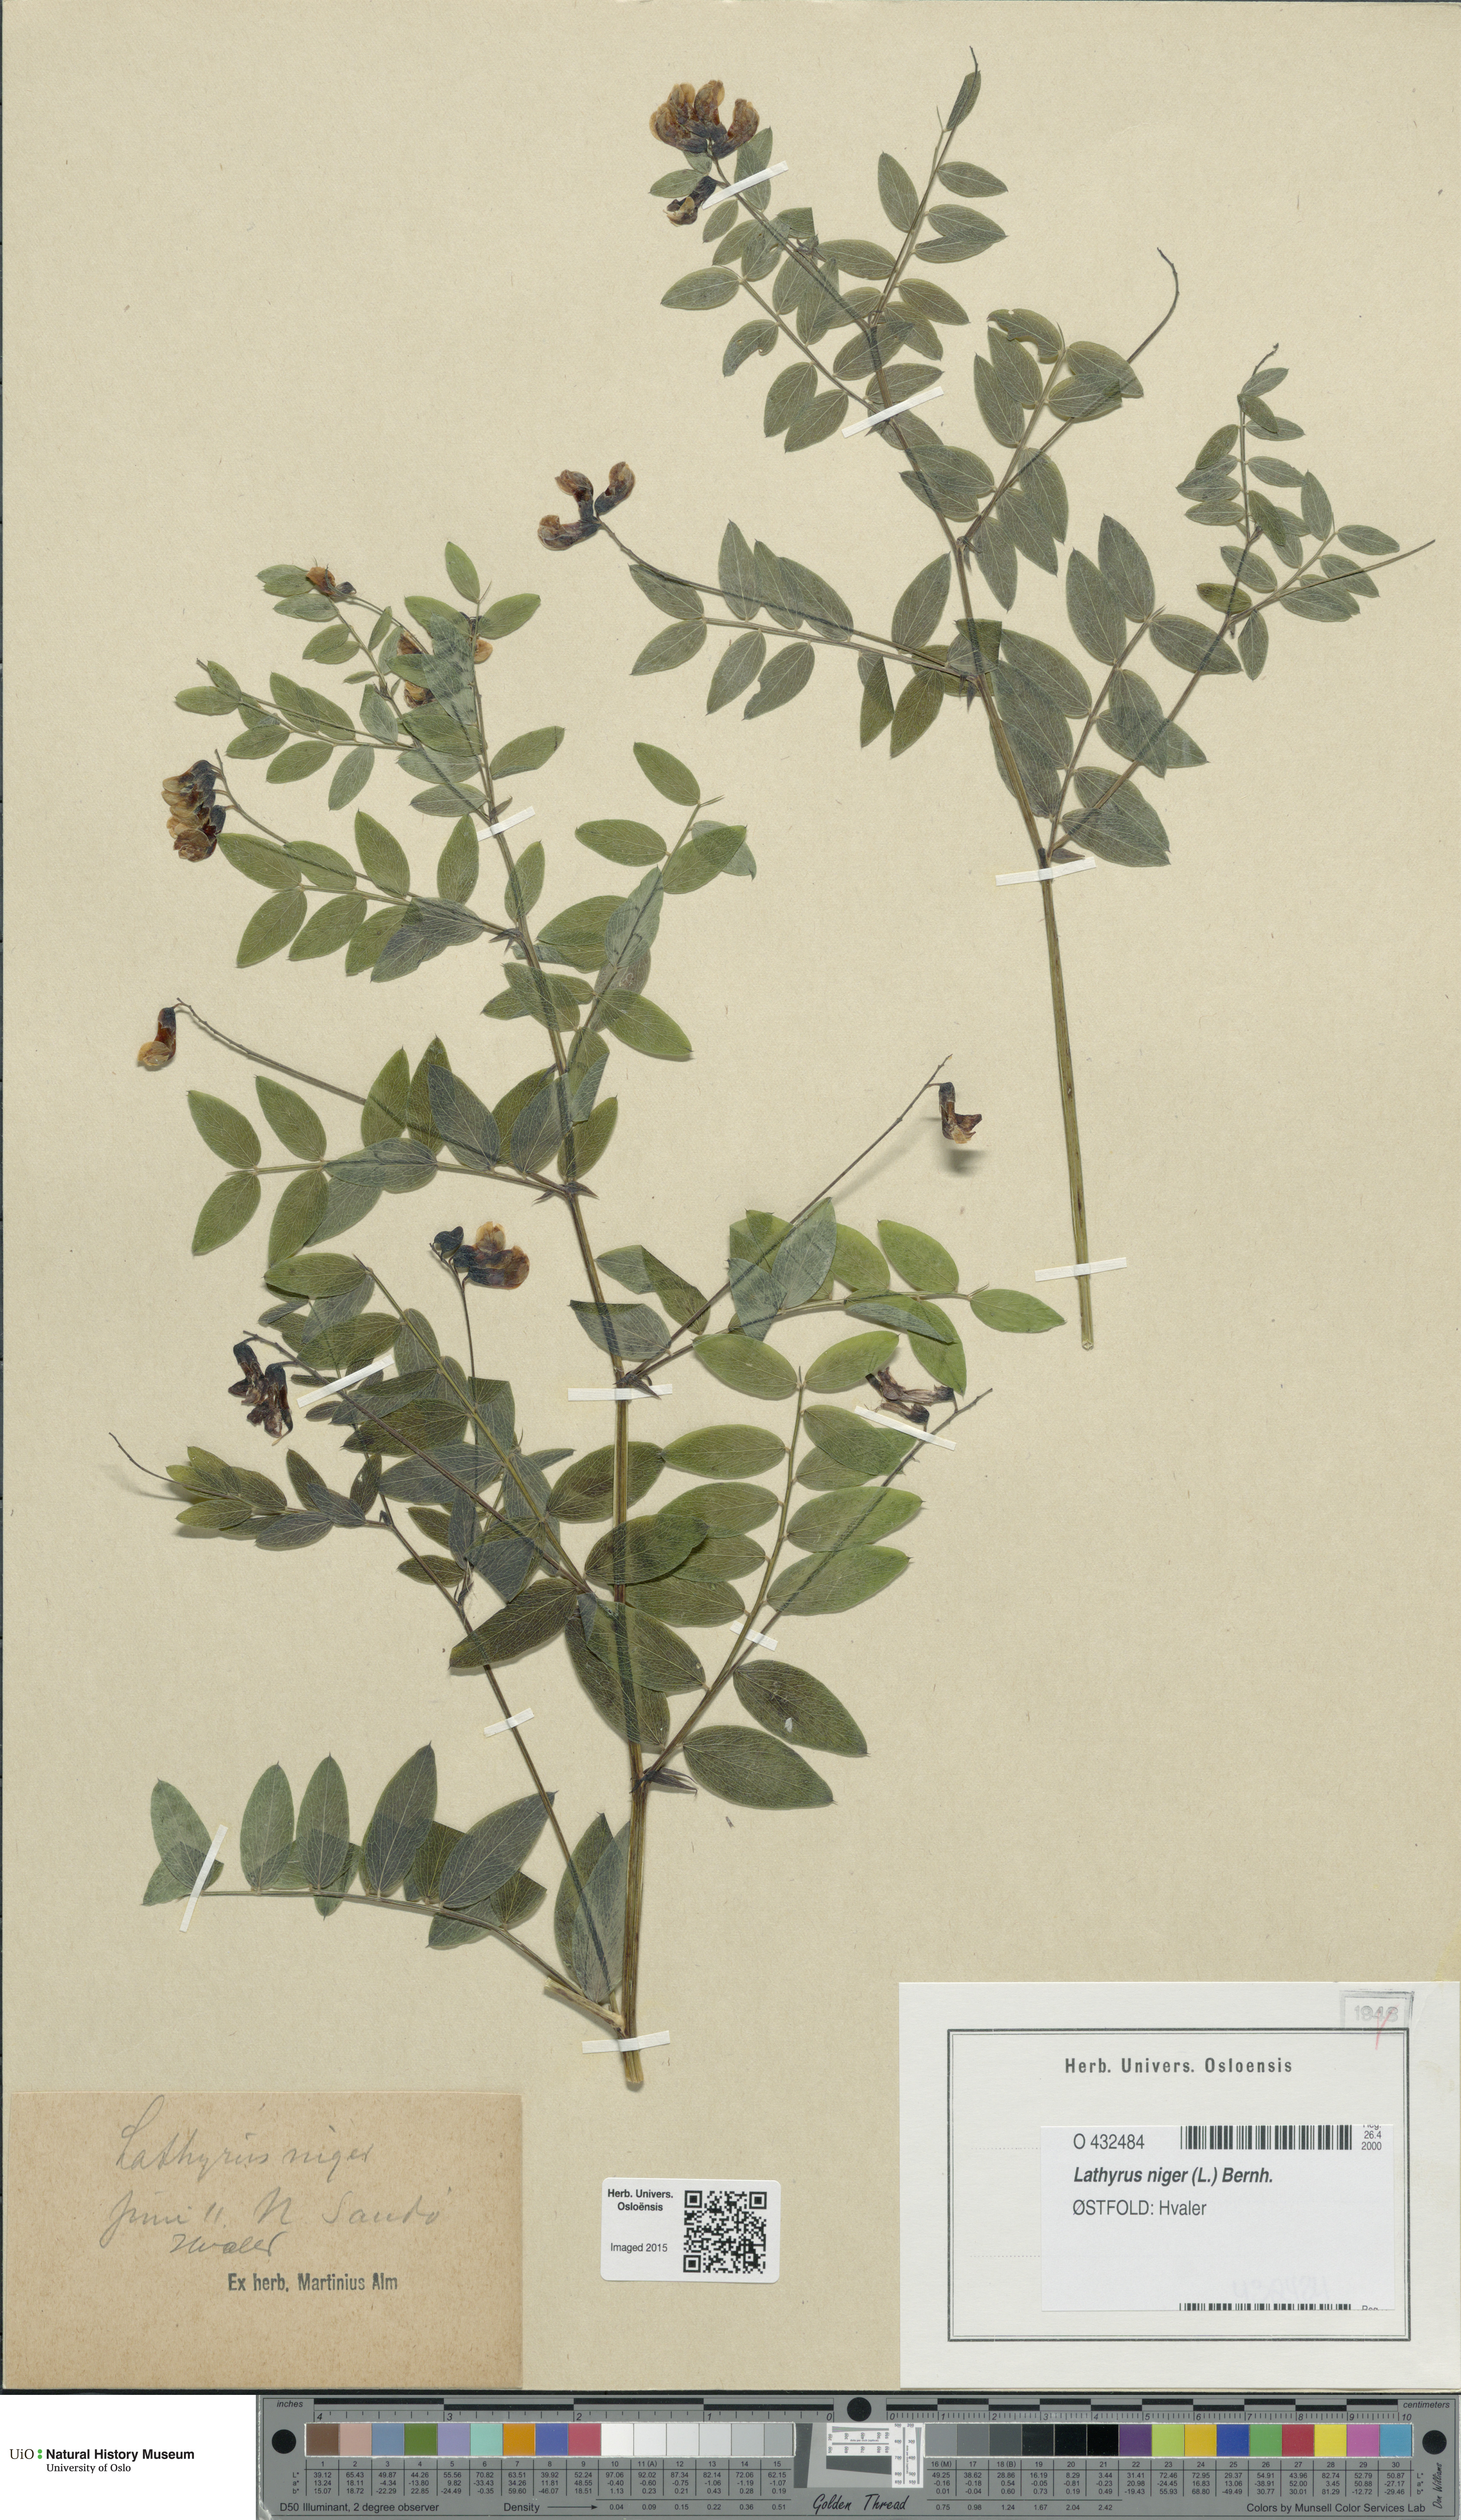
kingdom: Plantae
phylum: Tracheophyta
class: Magnoliopsida
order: Fabales
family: Fabaceae
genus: Lathyrus
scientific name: Lathyrus niger
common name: Black pea
